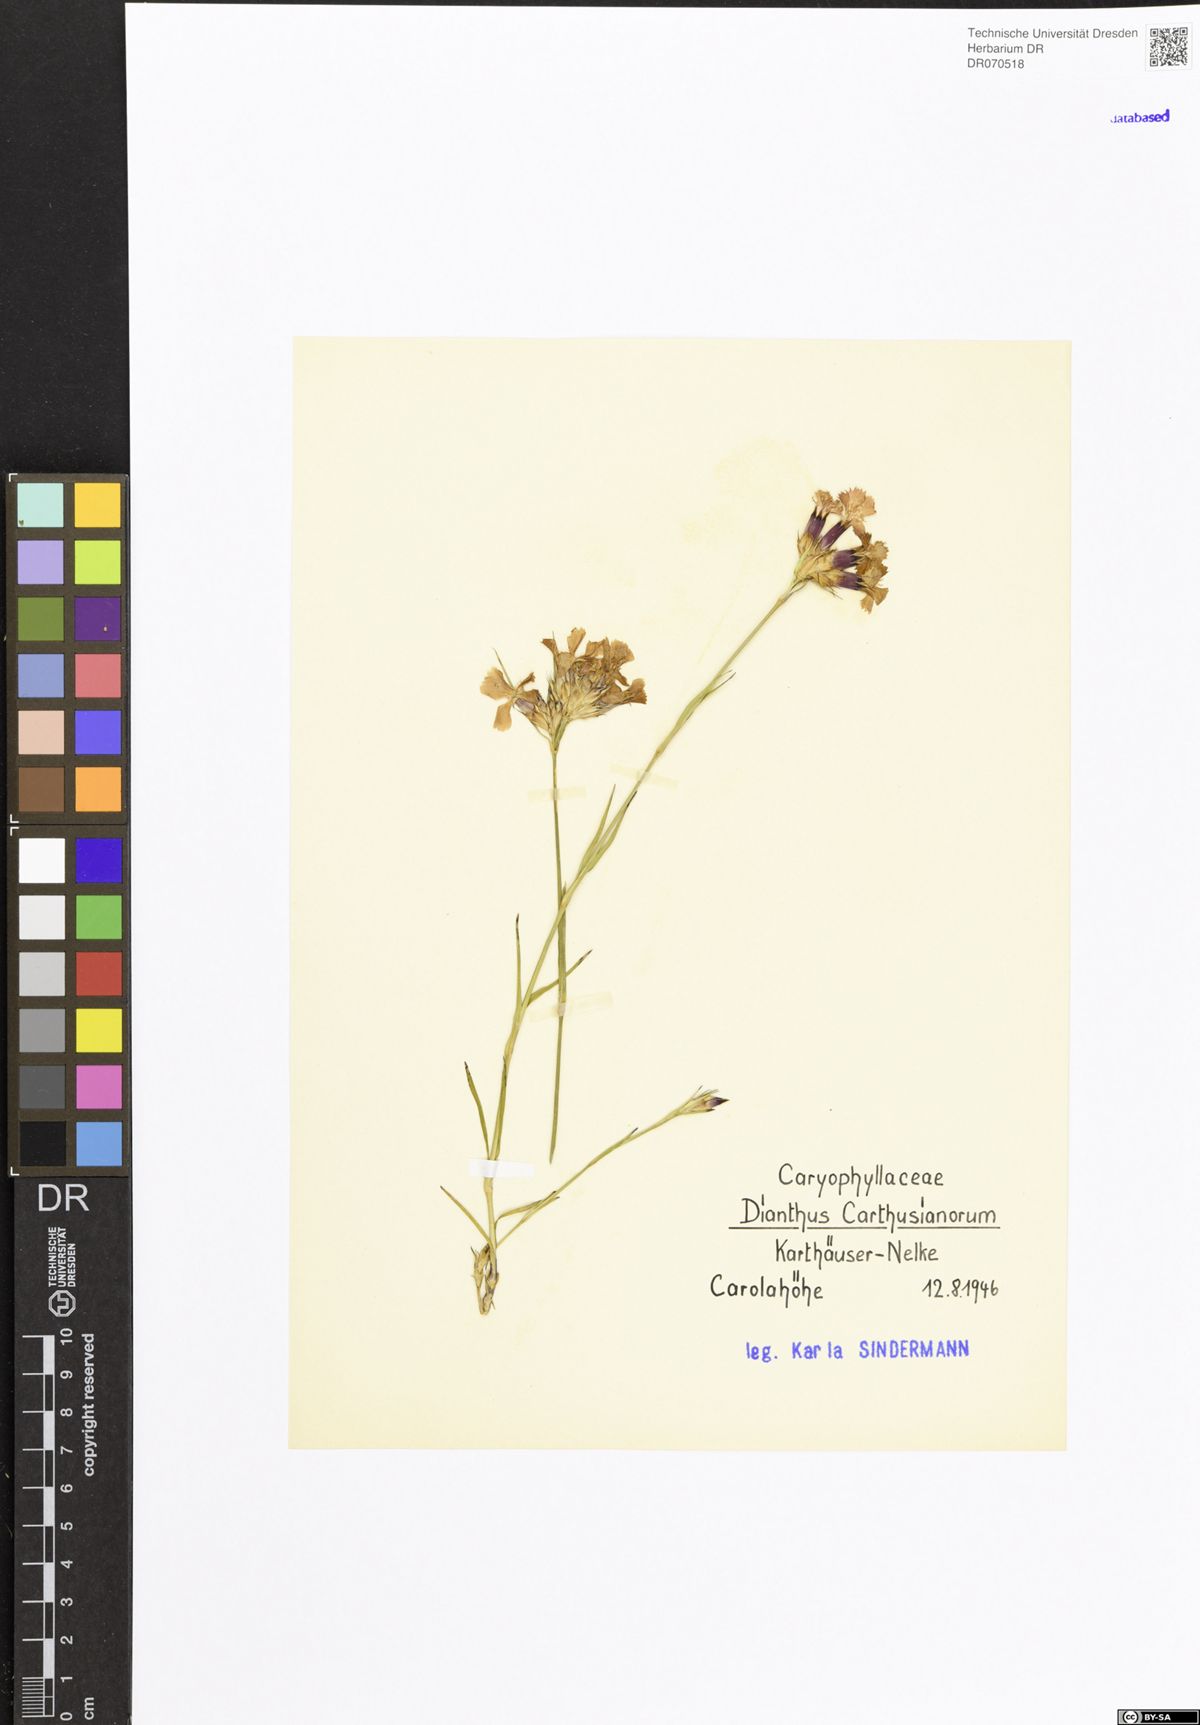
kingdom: Plantae
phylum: Tracheophyta
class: Magnoliopsida
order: Caryophyllales
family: Caryophyllaceae
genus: Dianthus
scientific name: Dianthus carthusianorum
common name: Carthusian pink
